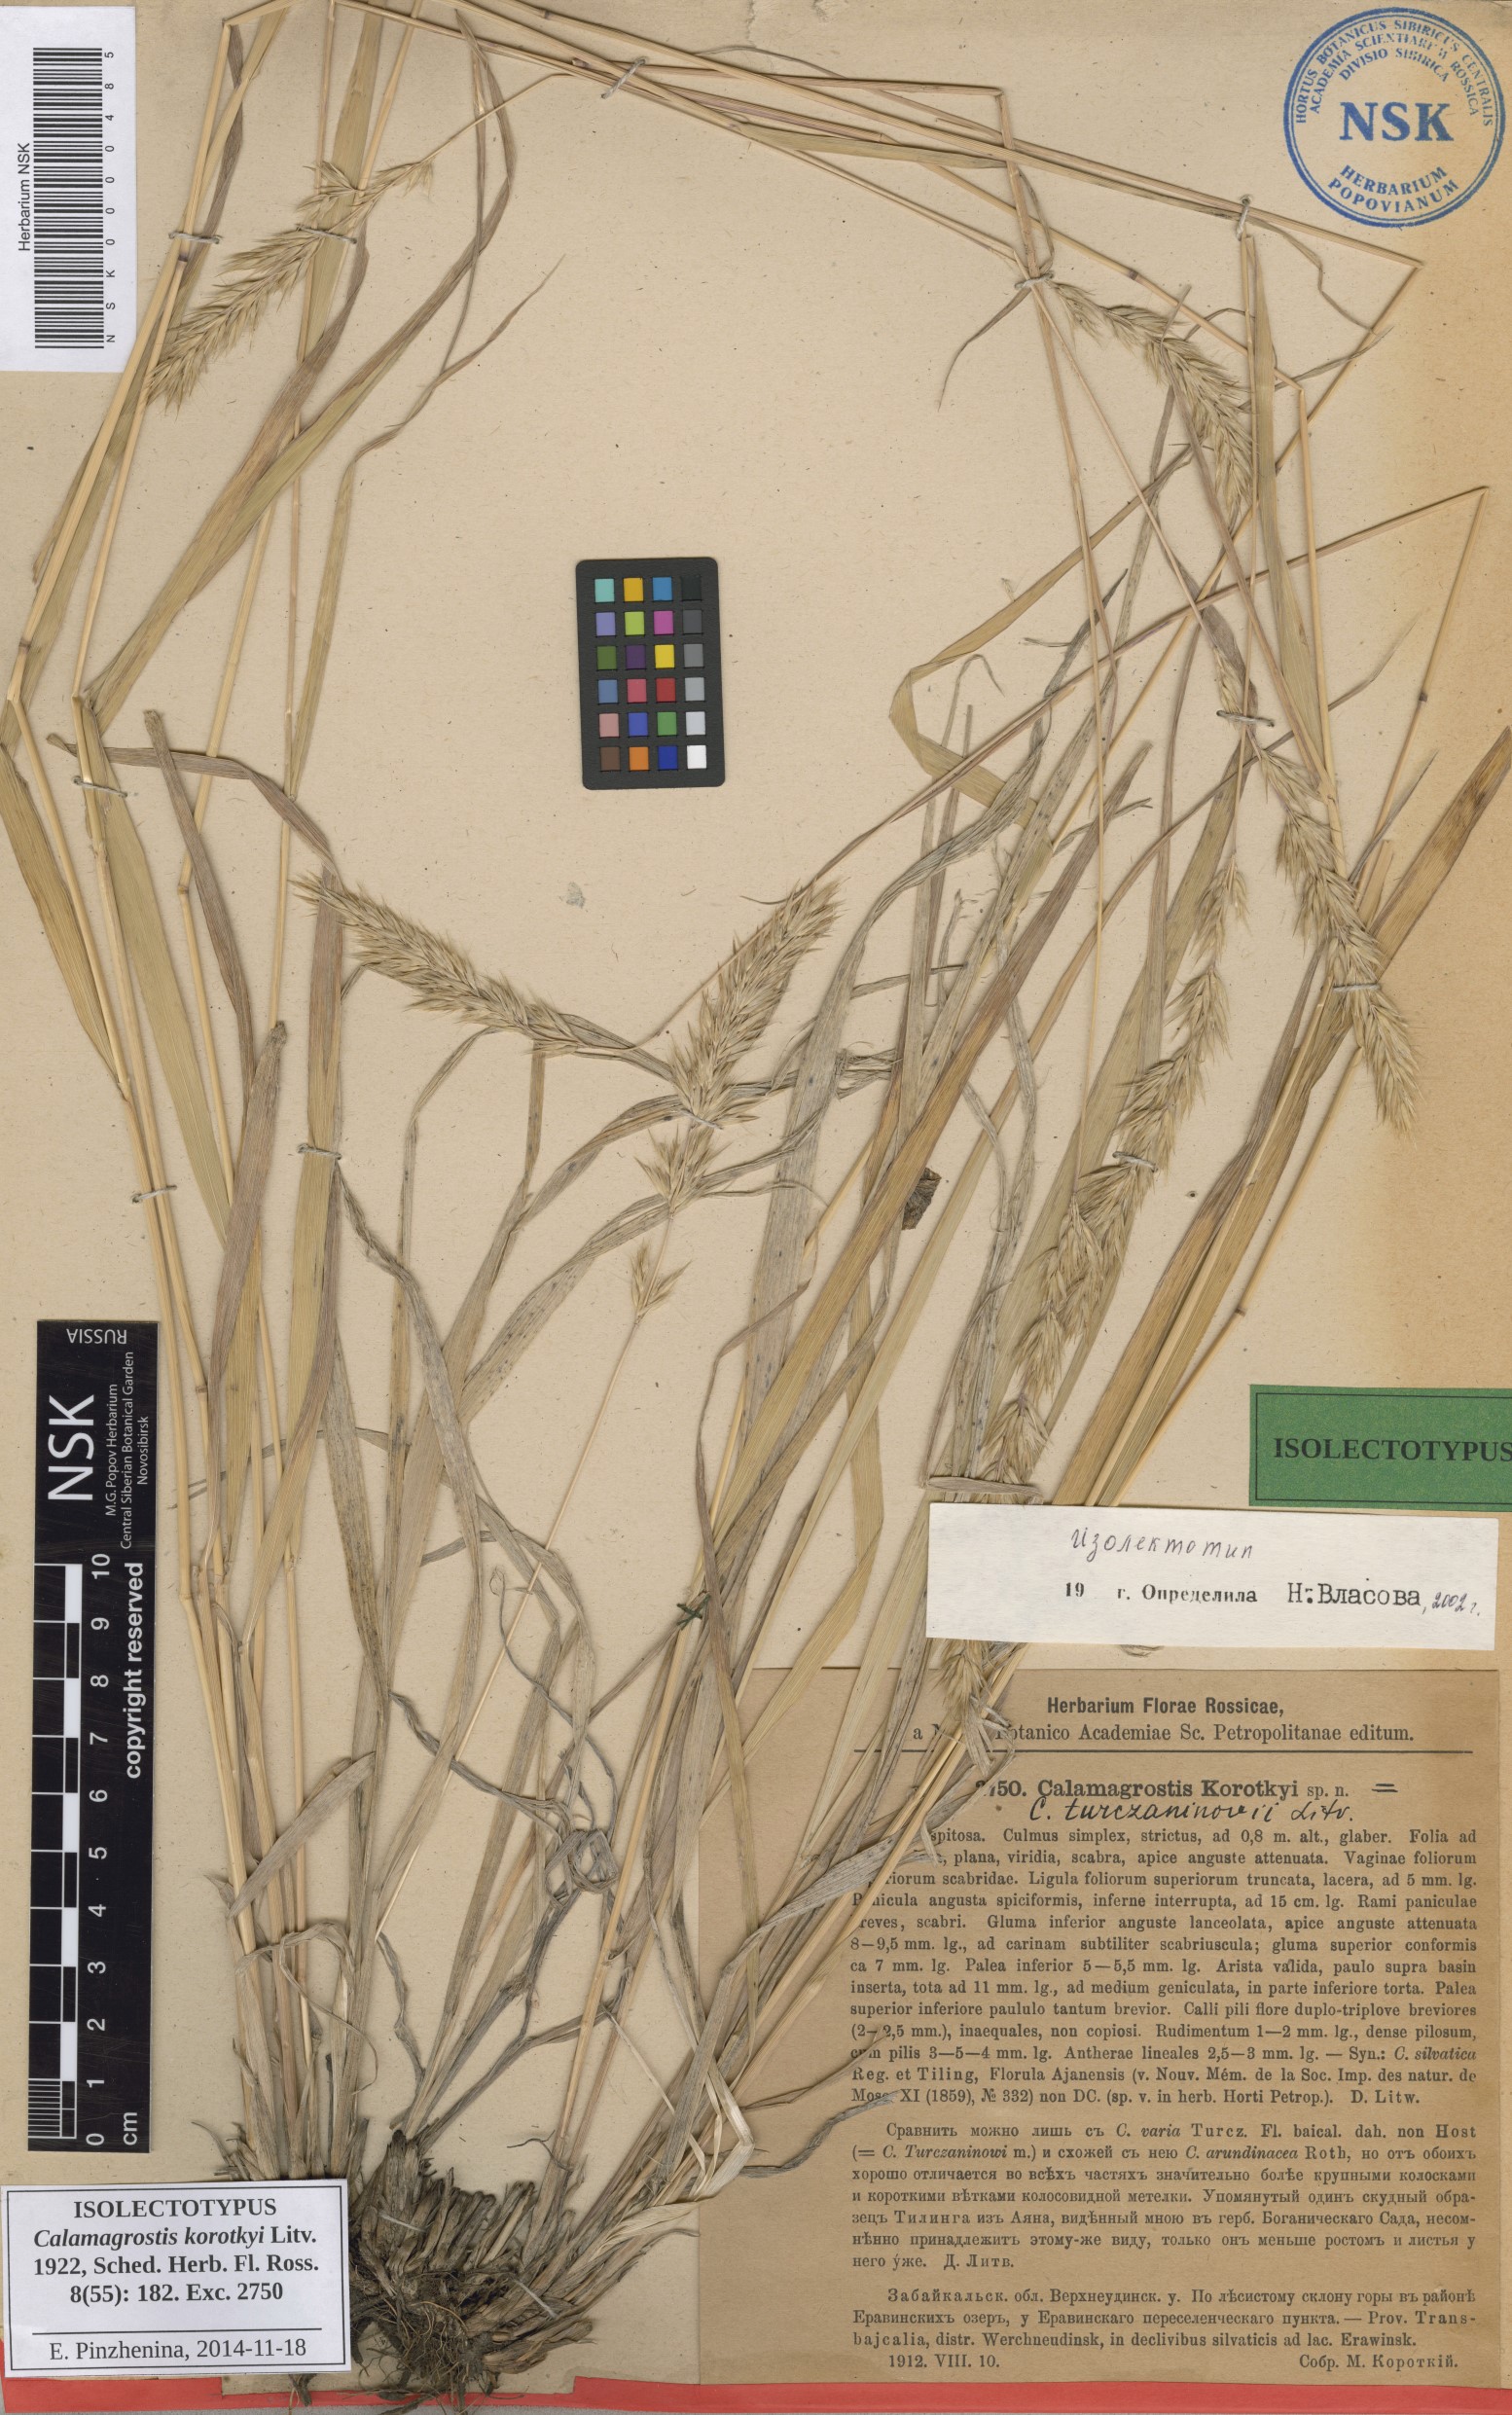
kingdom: Plantae
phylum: Tracheophyta
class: Liliopsida
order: Poales
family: Poaceae
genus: Calamagrostis
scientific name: Calamagrostis korotkyi
